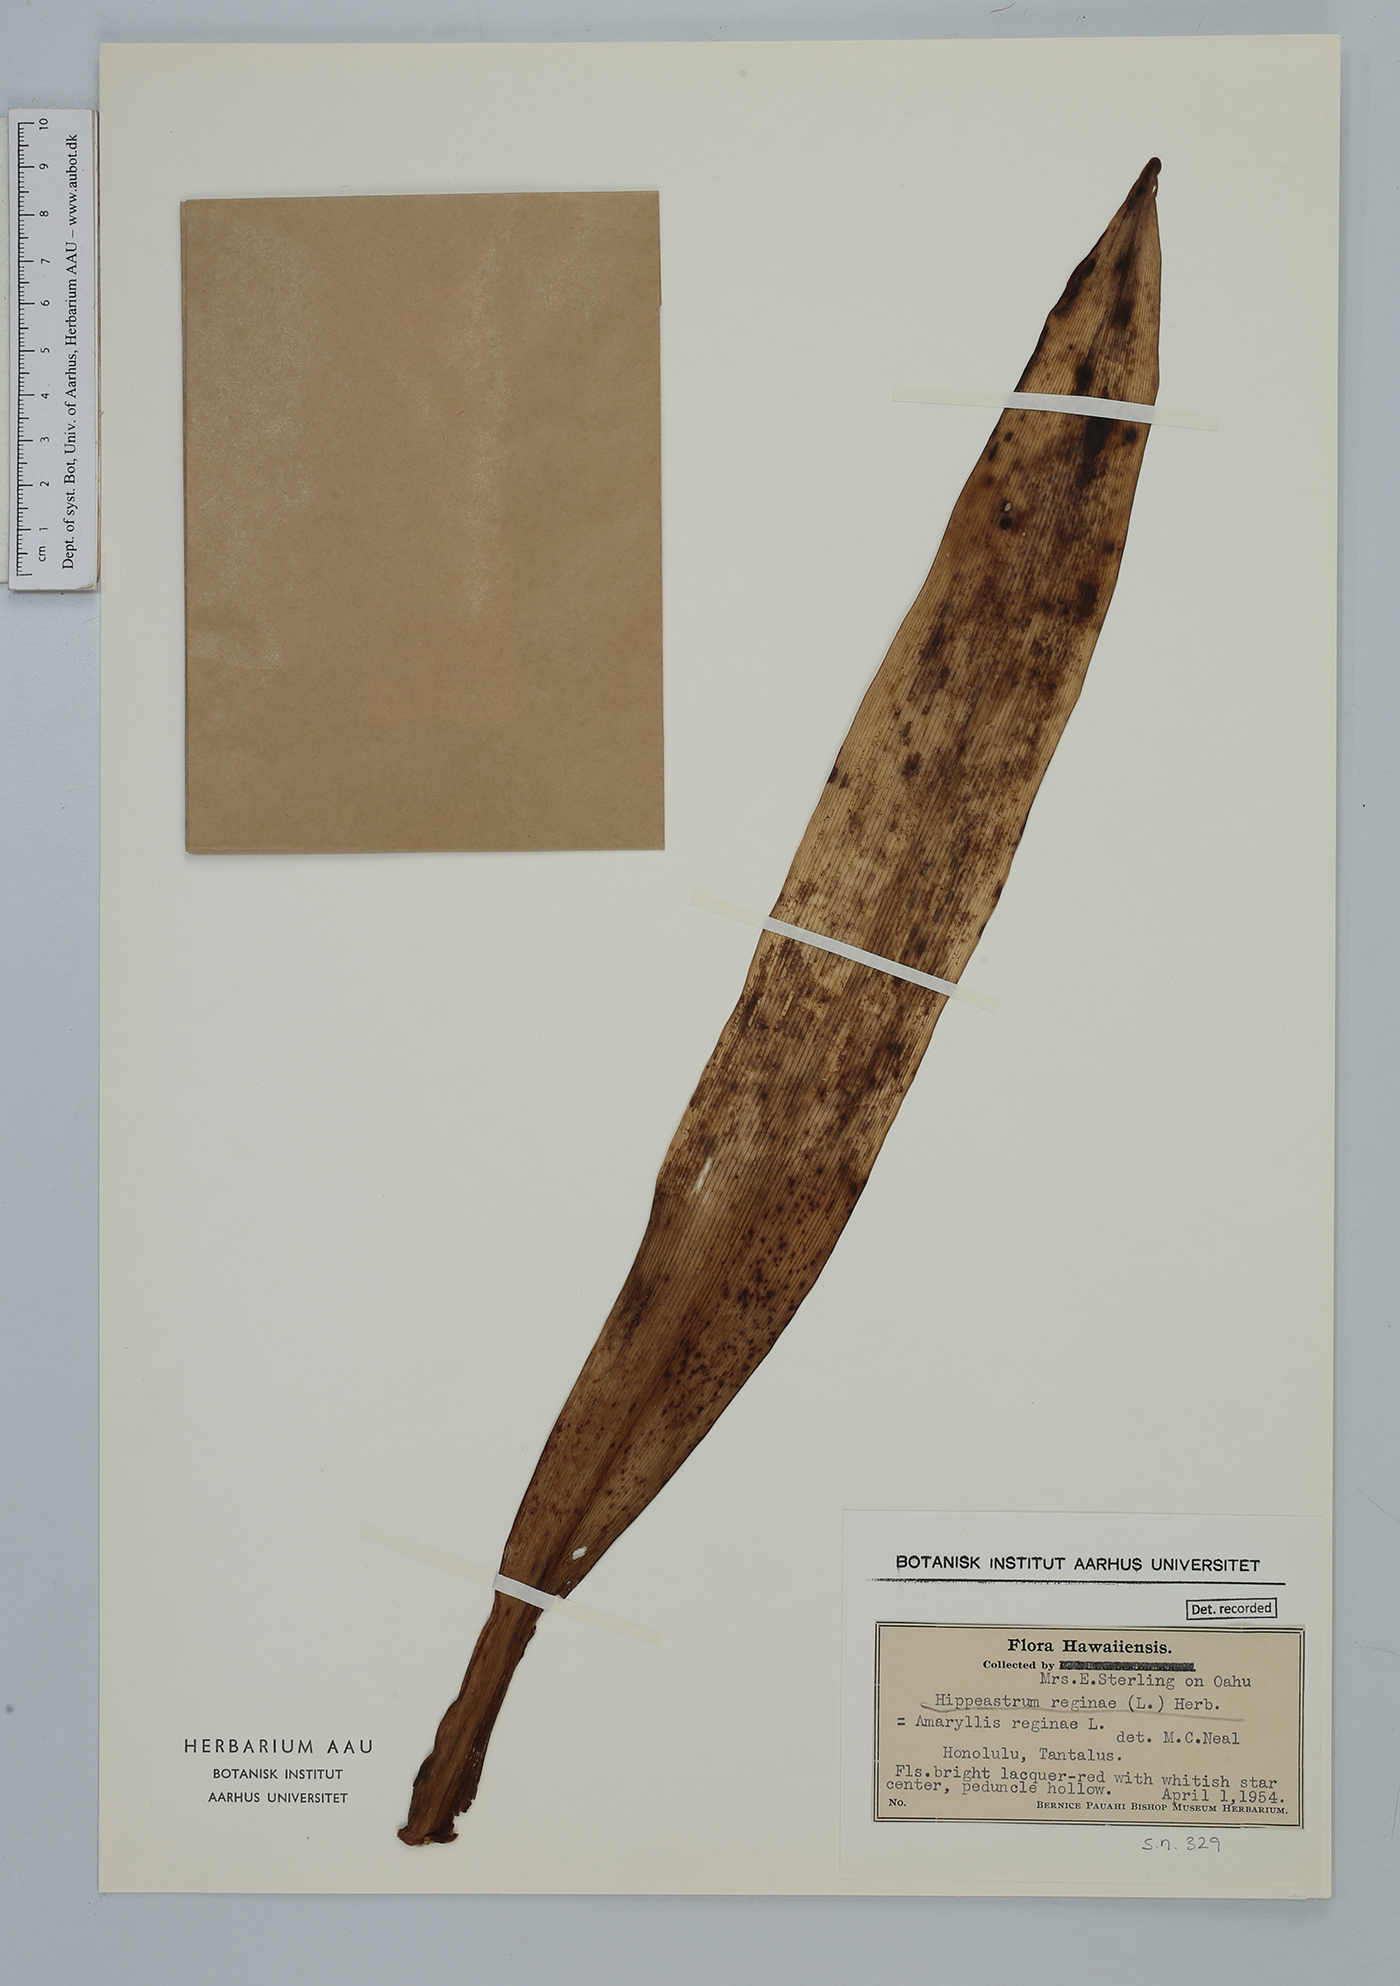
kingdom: Plantae
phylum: Tracheophyta
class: Liliopsida
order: Asparagales
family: Amaryllidaceae
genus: Hippeastrum
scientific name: Hippeastrum reginae
